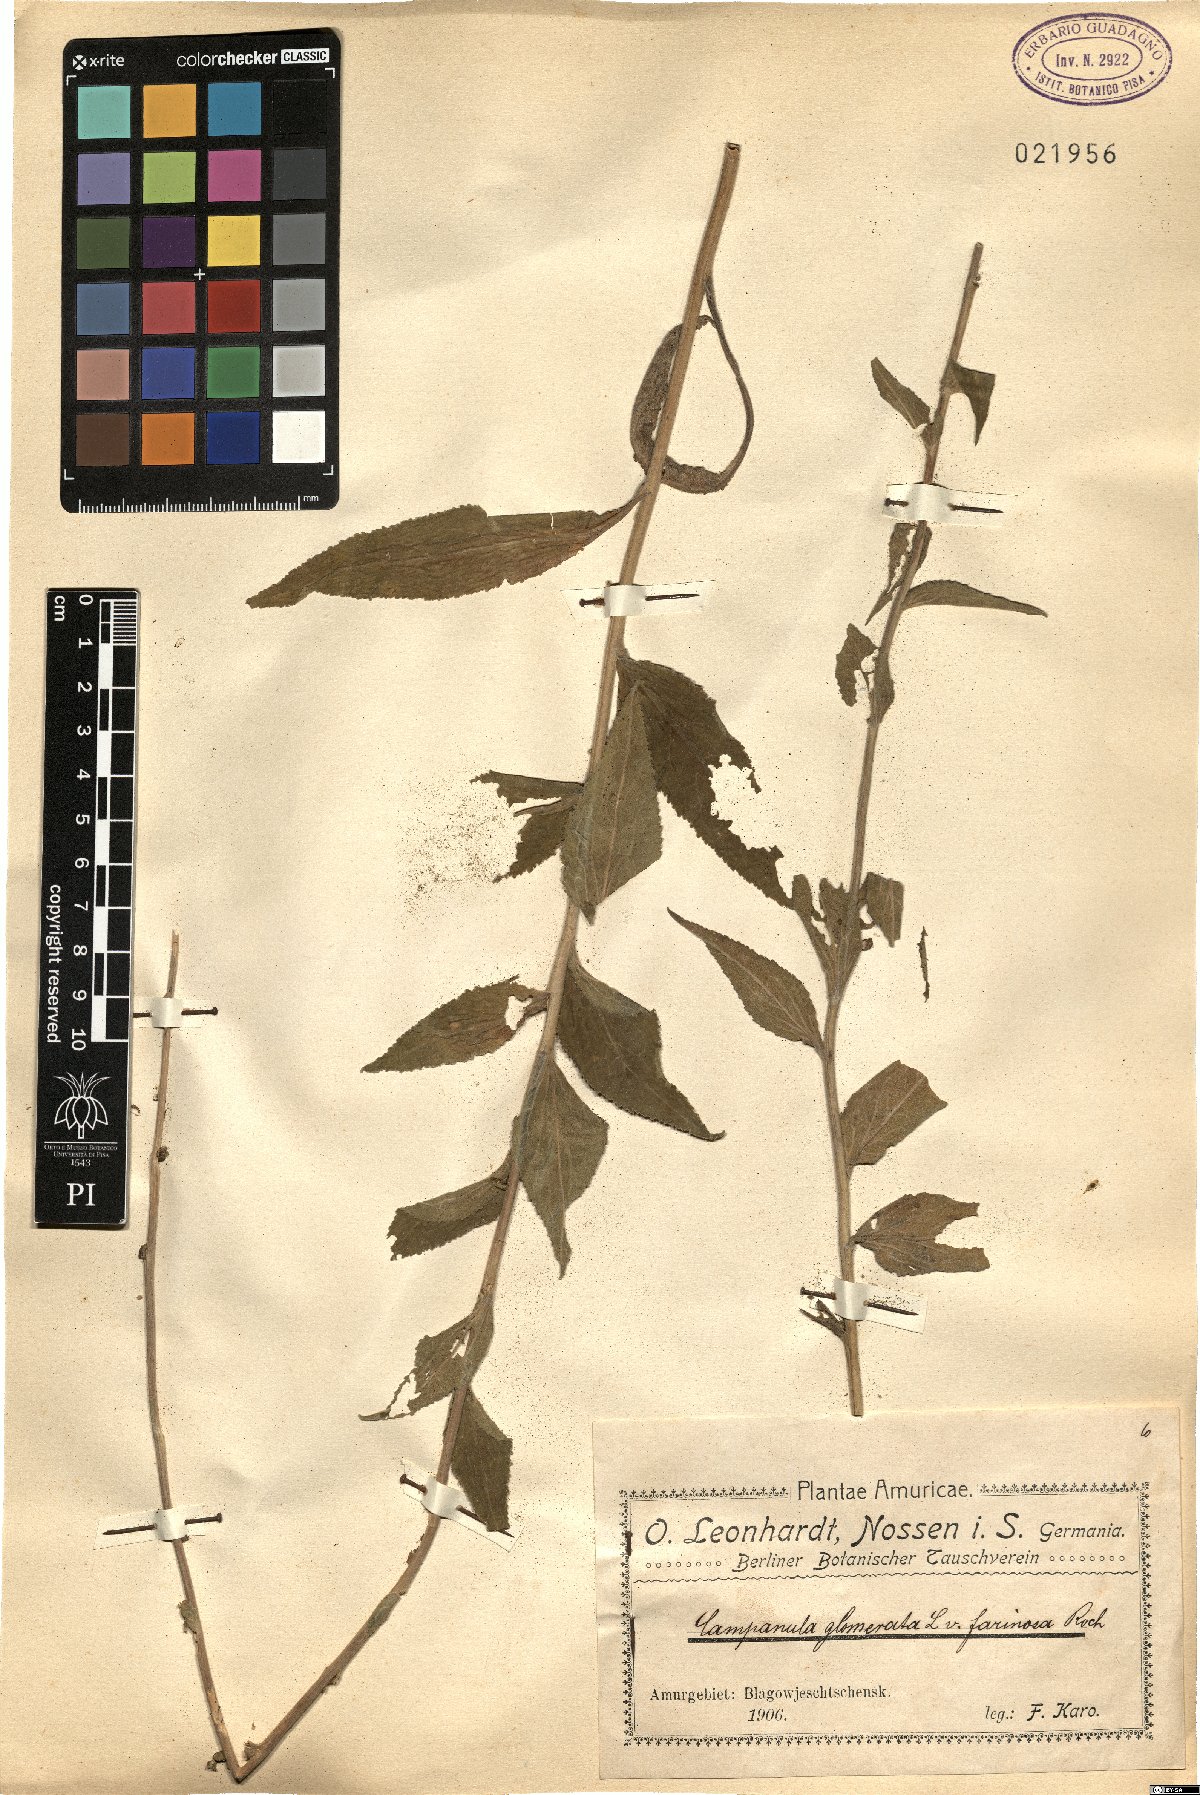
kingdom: Plantae
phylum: Tracheophyta
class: Magnoliopsida
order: Asterales
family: Campanulaceae
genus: Campanula
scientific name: Campanula glomerata
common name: Clustered bellflower
